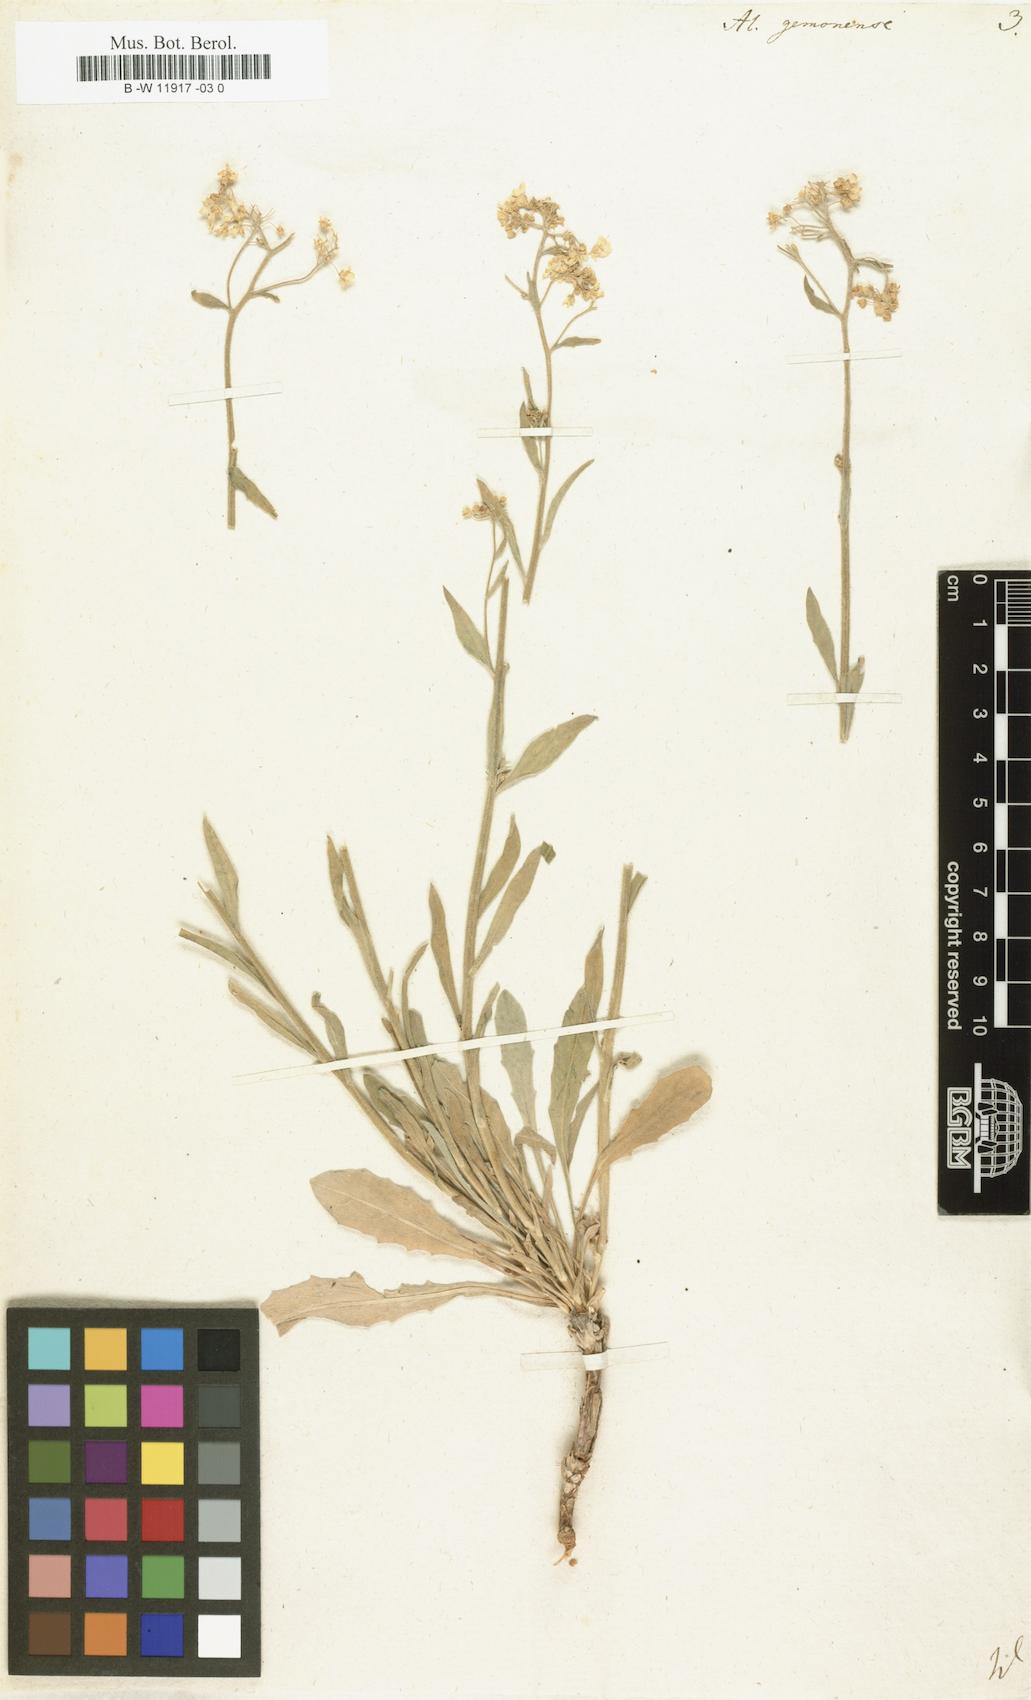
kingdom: Plantae
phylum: Tracheophyta
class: Magnoliopsida
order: Brassicales
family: Brassicaceae
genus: Aurinia
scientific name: Aurinia petraea
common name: Goldentuft
